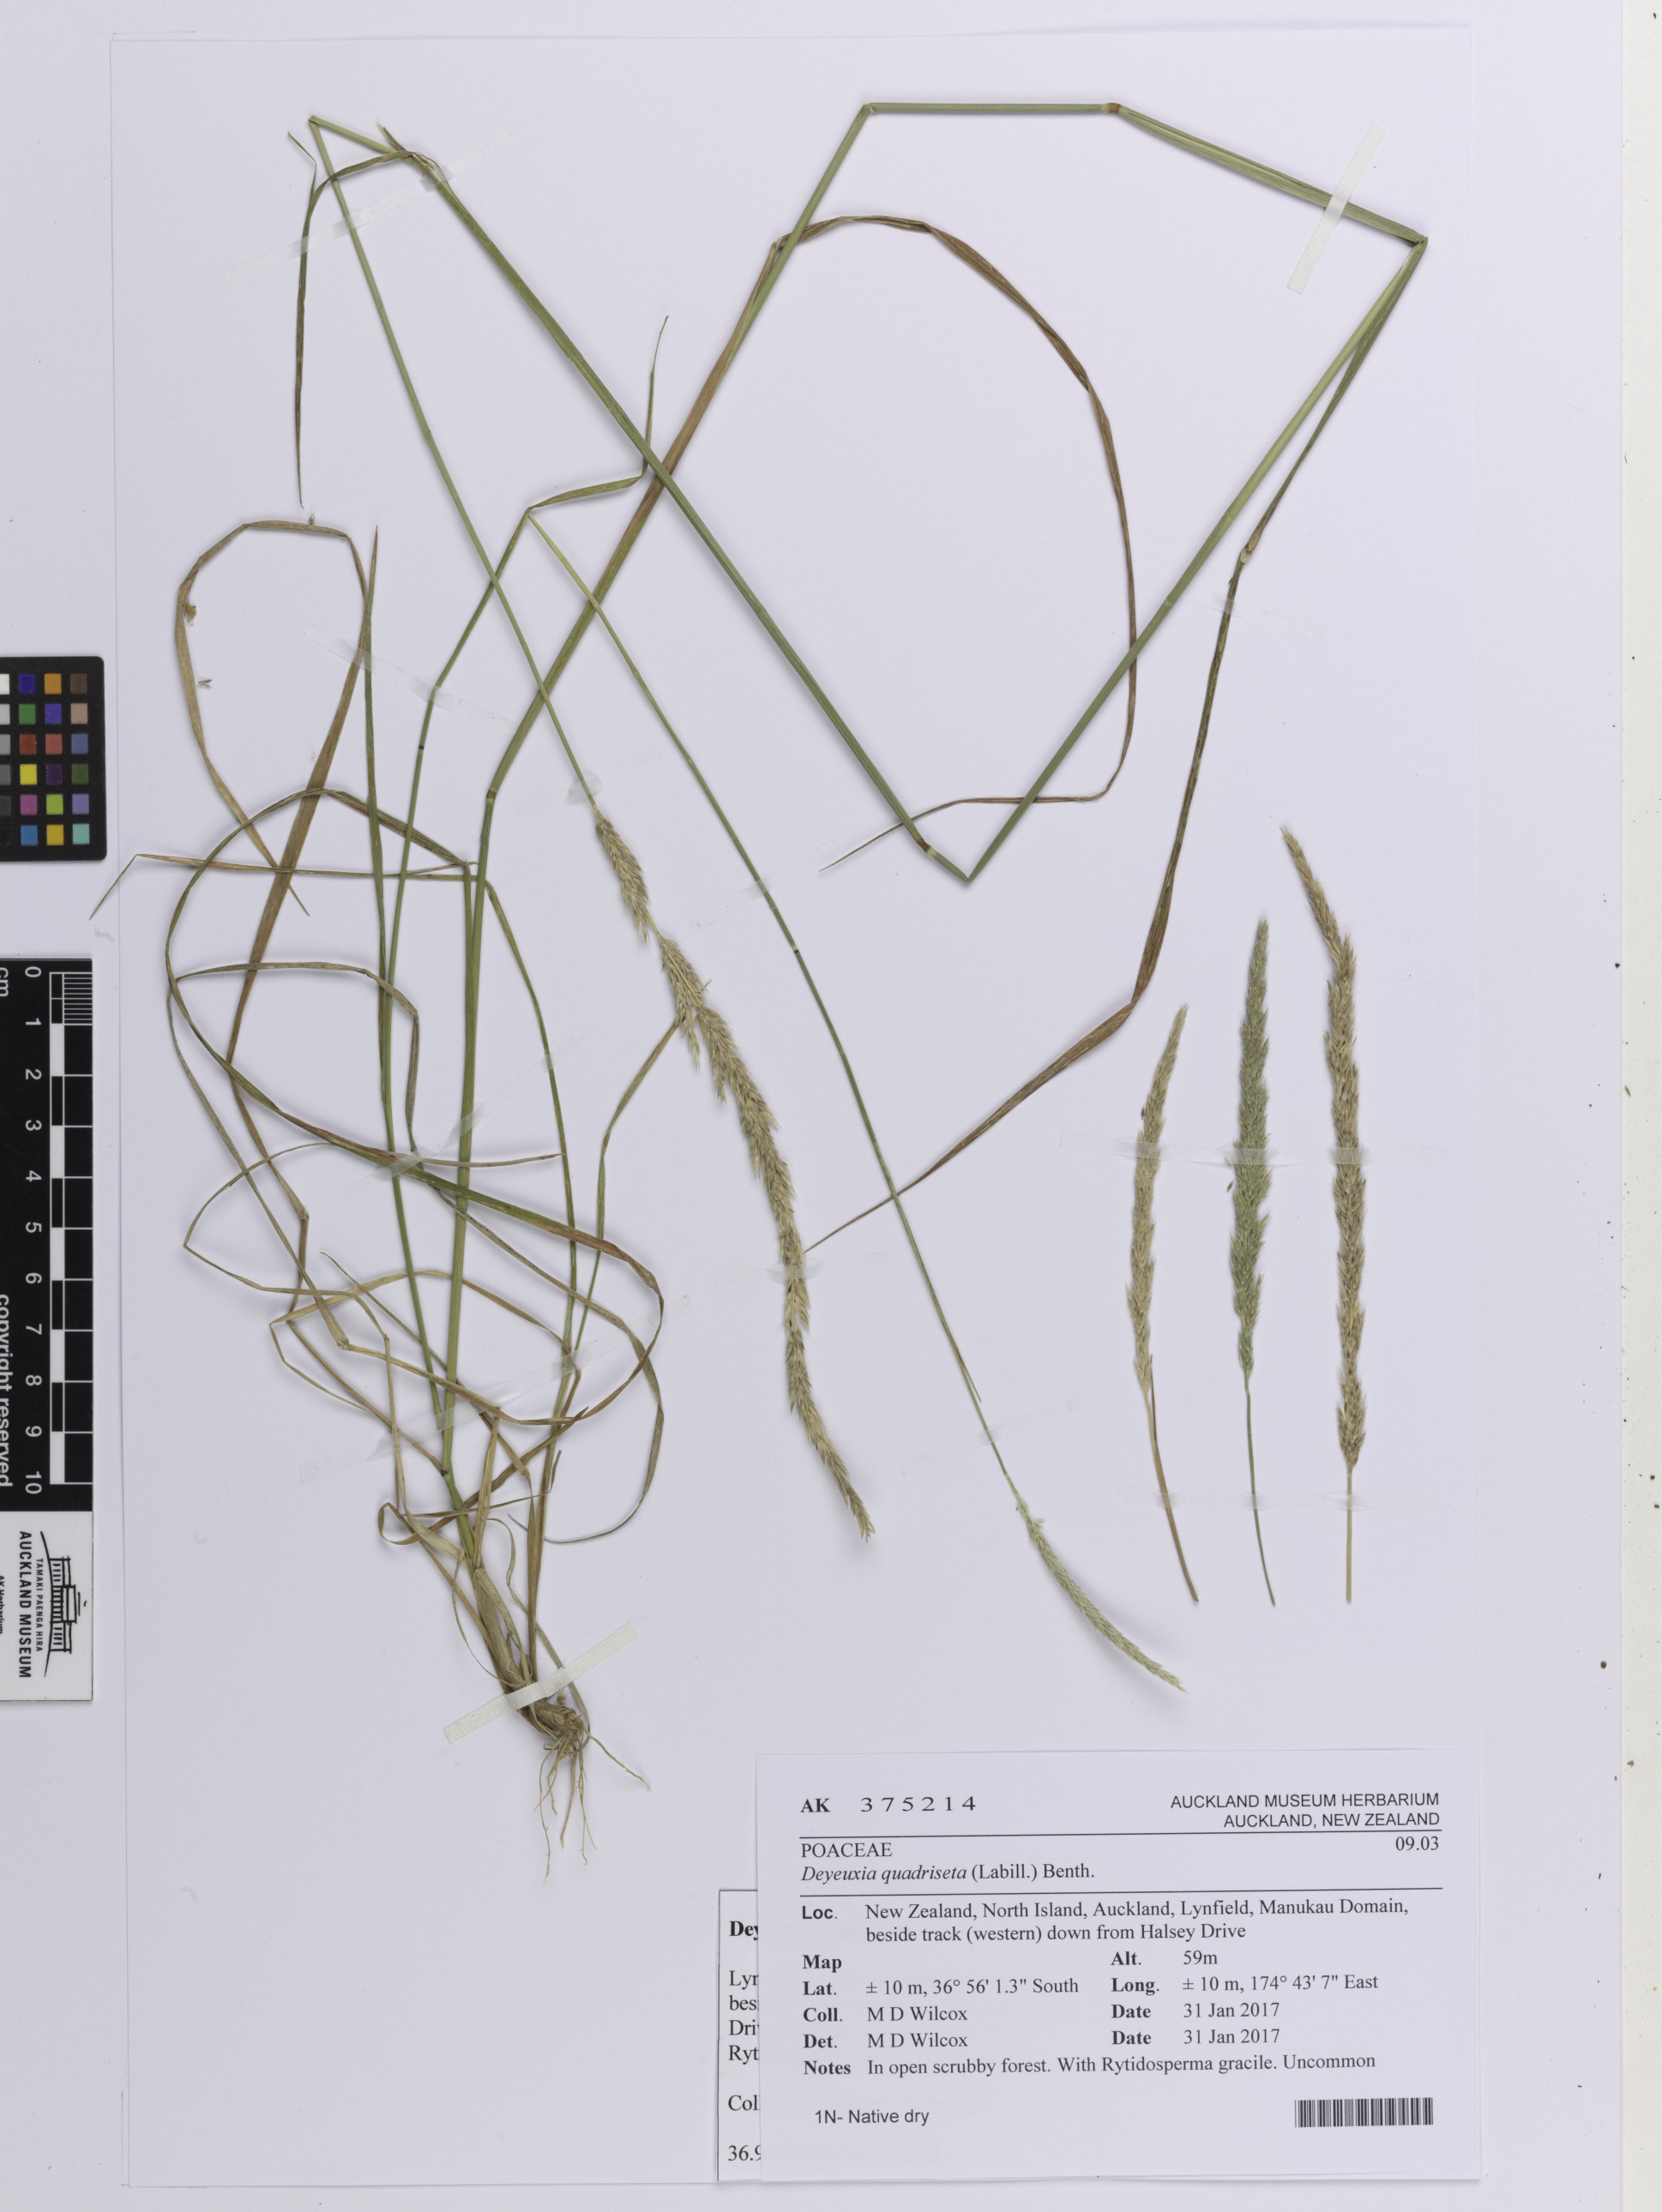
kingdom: Plantae
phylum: Tracheophyta
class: Liliopsida
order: Poales
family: Poaceae
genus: Calamagrostis
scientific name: Calamagrostis quadriseta
